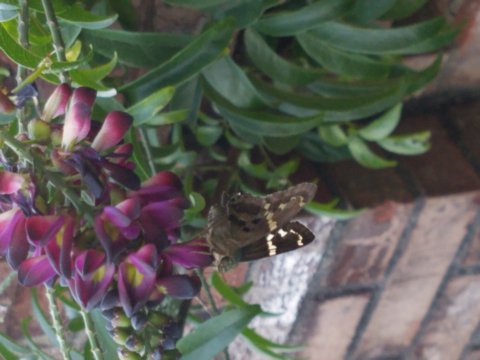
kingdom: Animalia
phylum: Arthropoda
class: Insecta
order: Lepidoptera
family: Hesperiidae
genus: Urbanus
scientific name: Urbanus proteus
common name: Long-tailed Skipper
